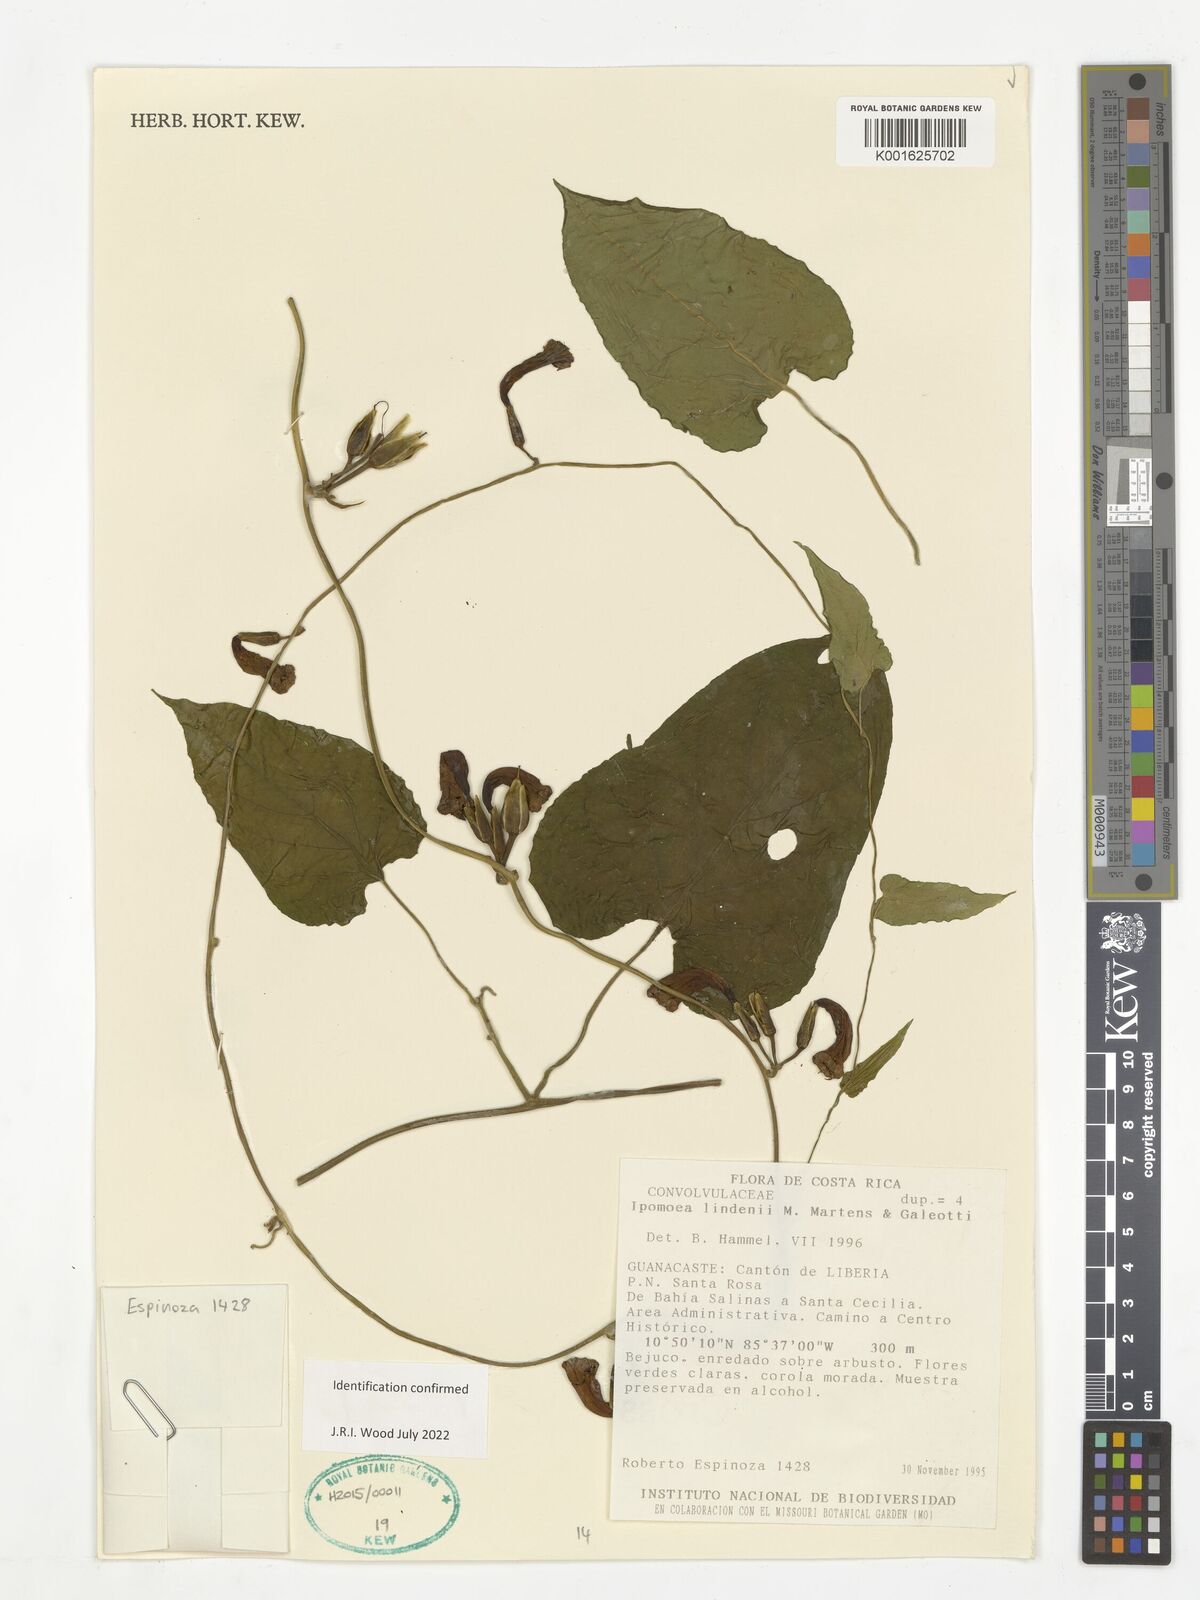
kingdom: Plantae
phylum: Tracheophyta
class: Magnoliopsida
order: Solanales
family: Convolvulaceae
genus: Ipomoea
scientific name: Ipomoea lindenii
